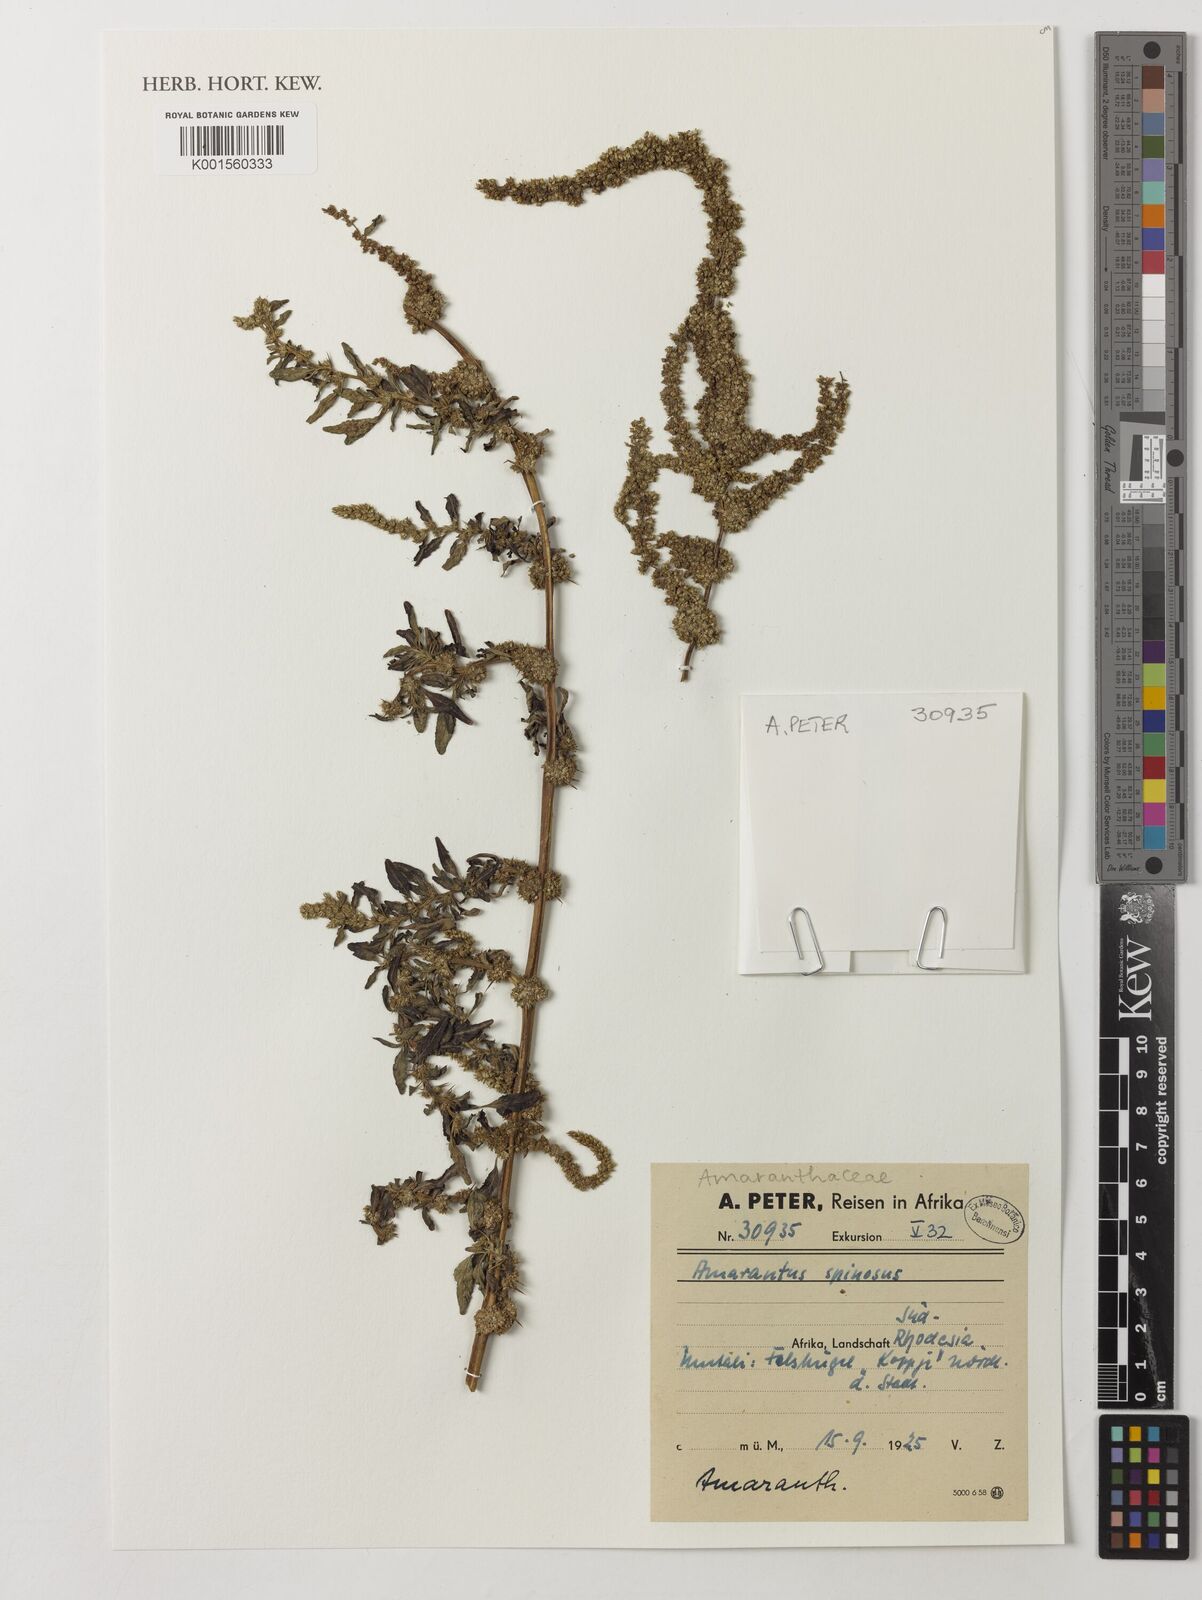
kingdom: Plantae
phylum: Tracheophyta
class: Magnoliopsida
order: Caryophyllales
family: Amaranthaceae
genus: Amaranthus
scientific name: Amaranthus spinosus
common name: Spiny amaranth
